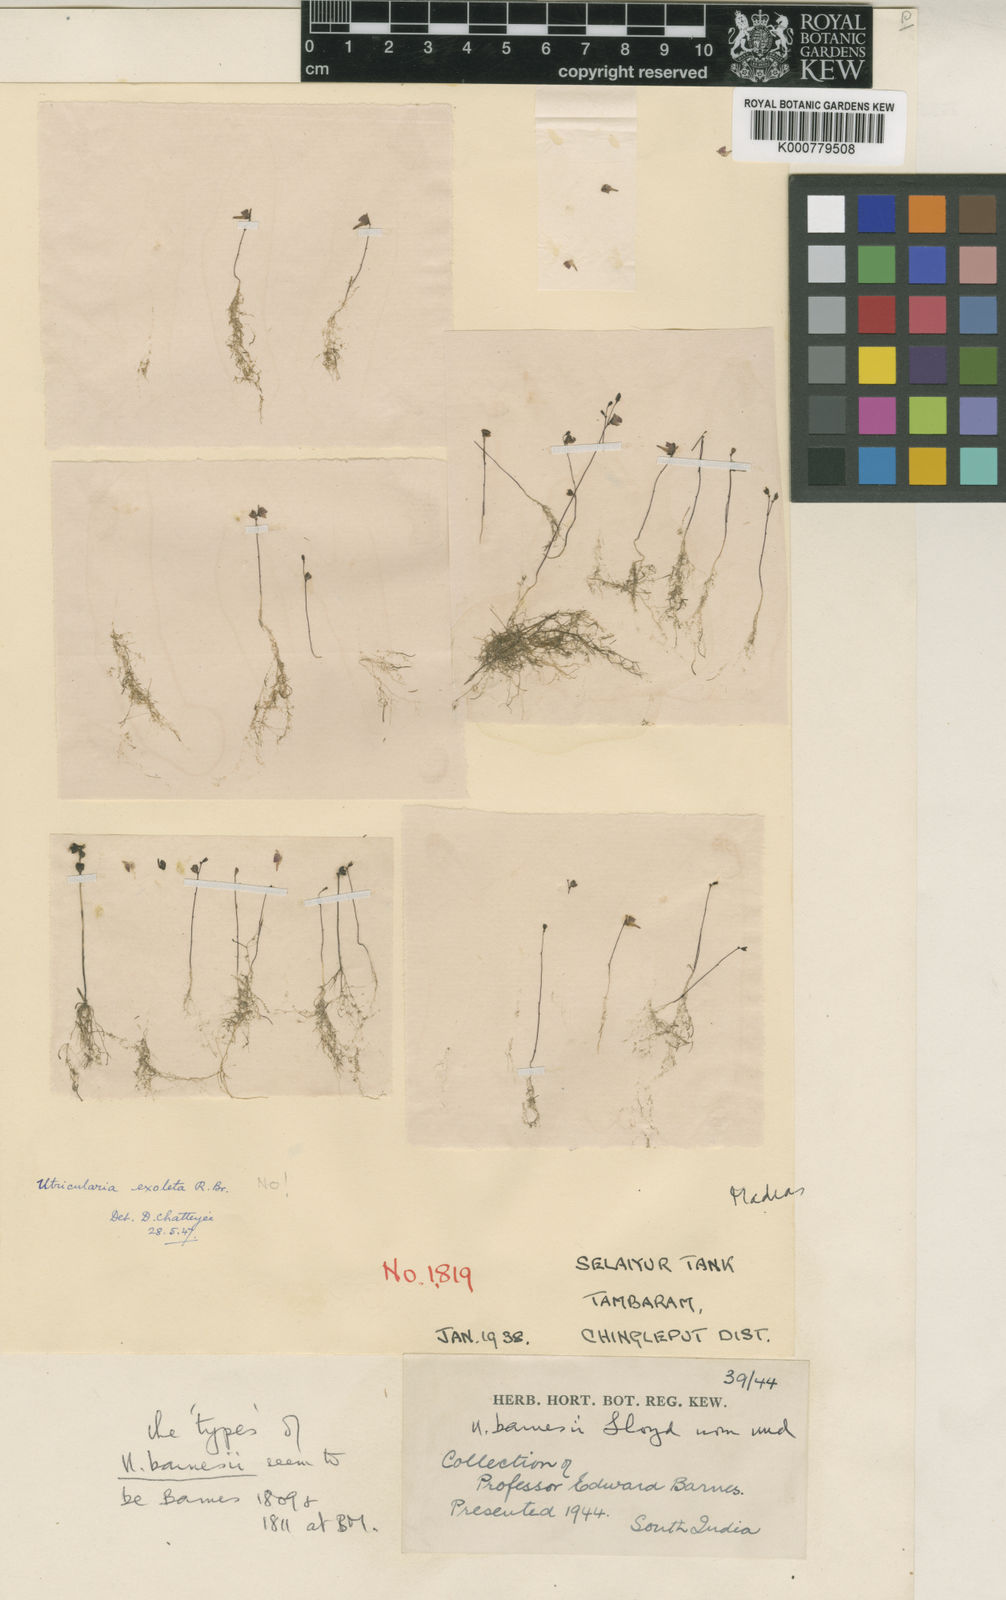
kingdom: Plantae
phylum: Tracheophyta
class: Magnoliopsida
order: Lamiales
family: Lentibulariaceae
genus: Utricularia
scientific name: Utricularia minutissima
